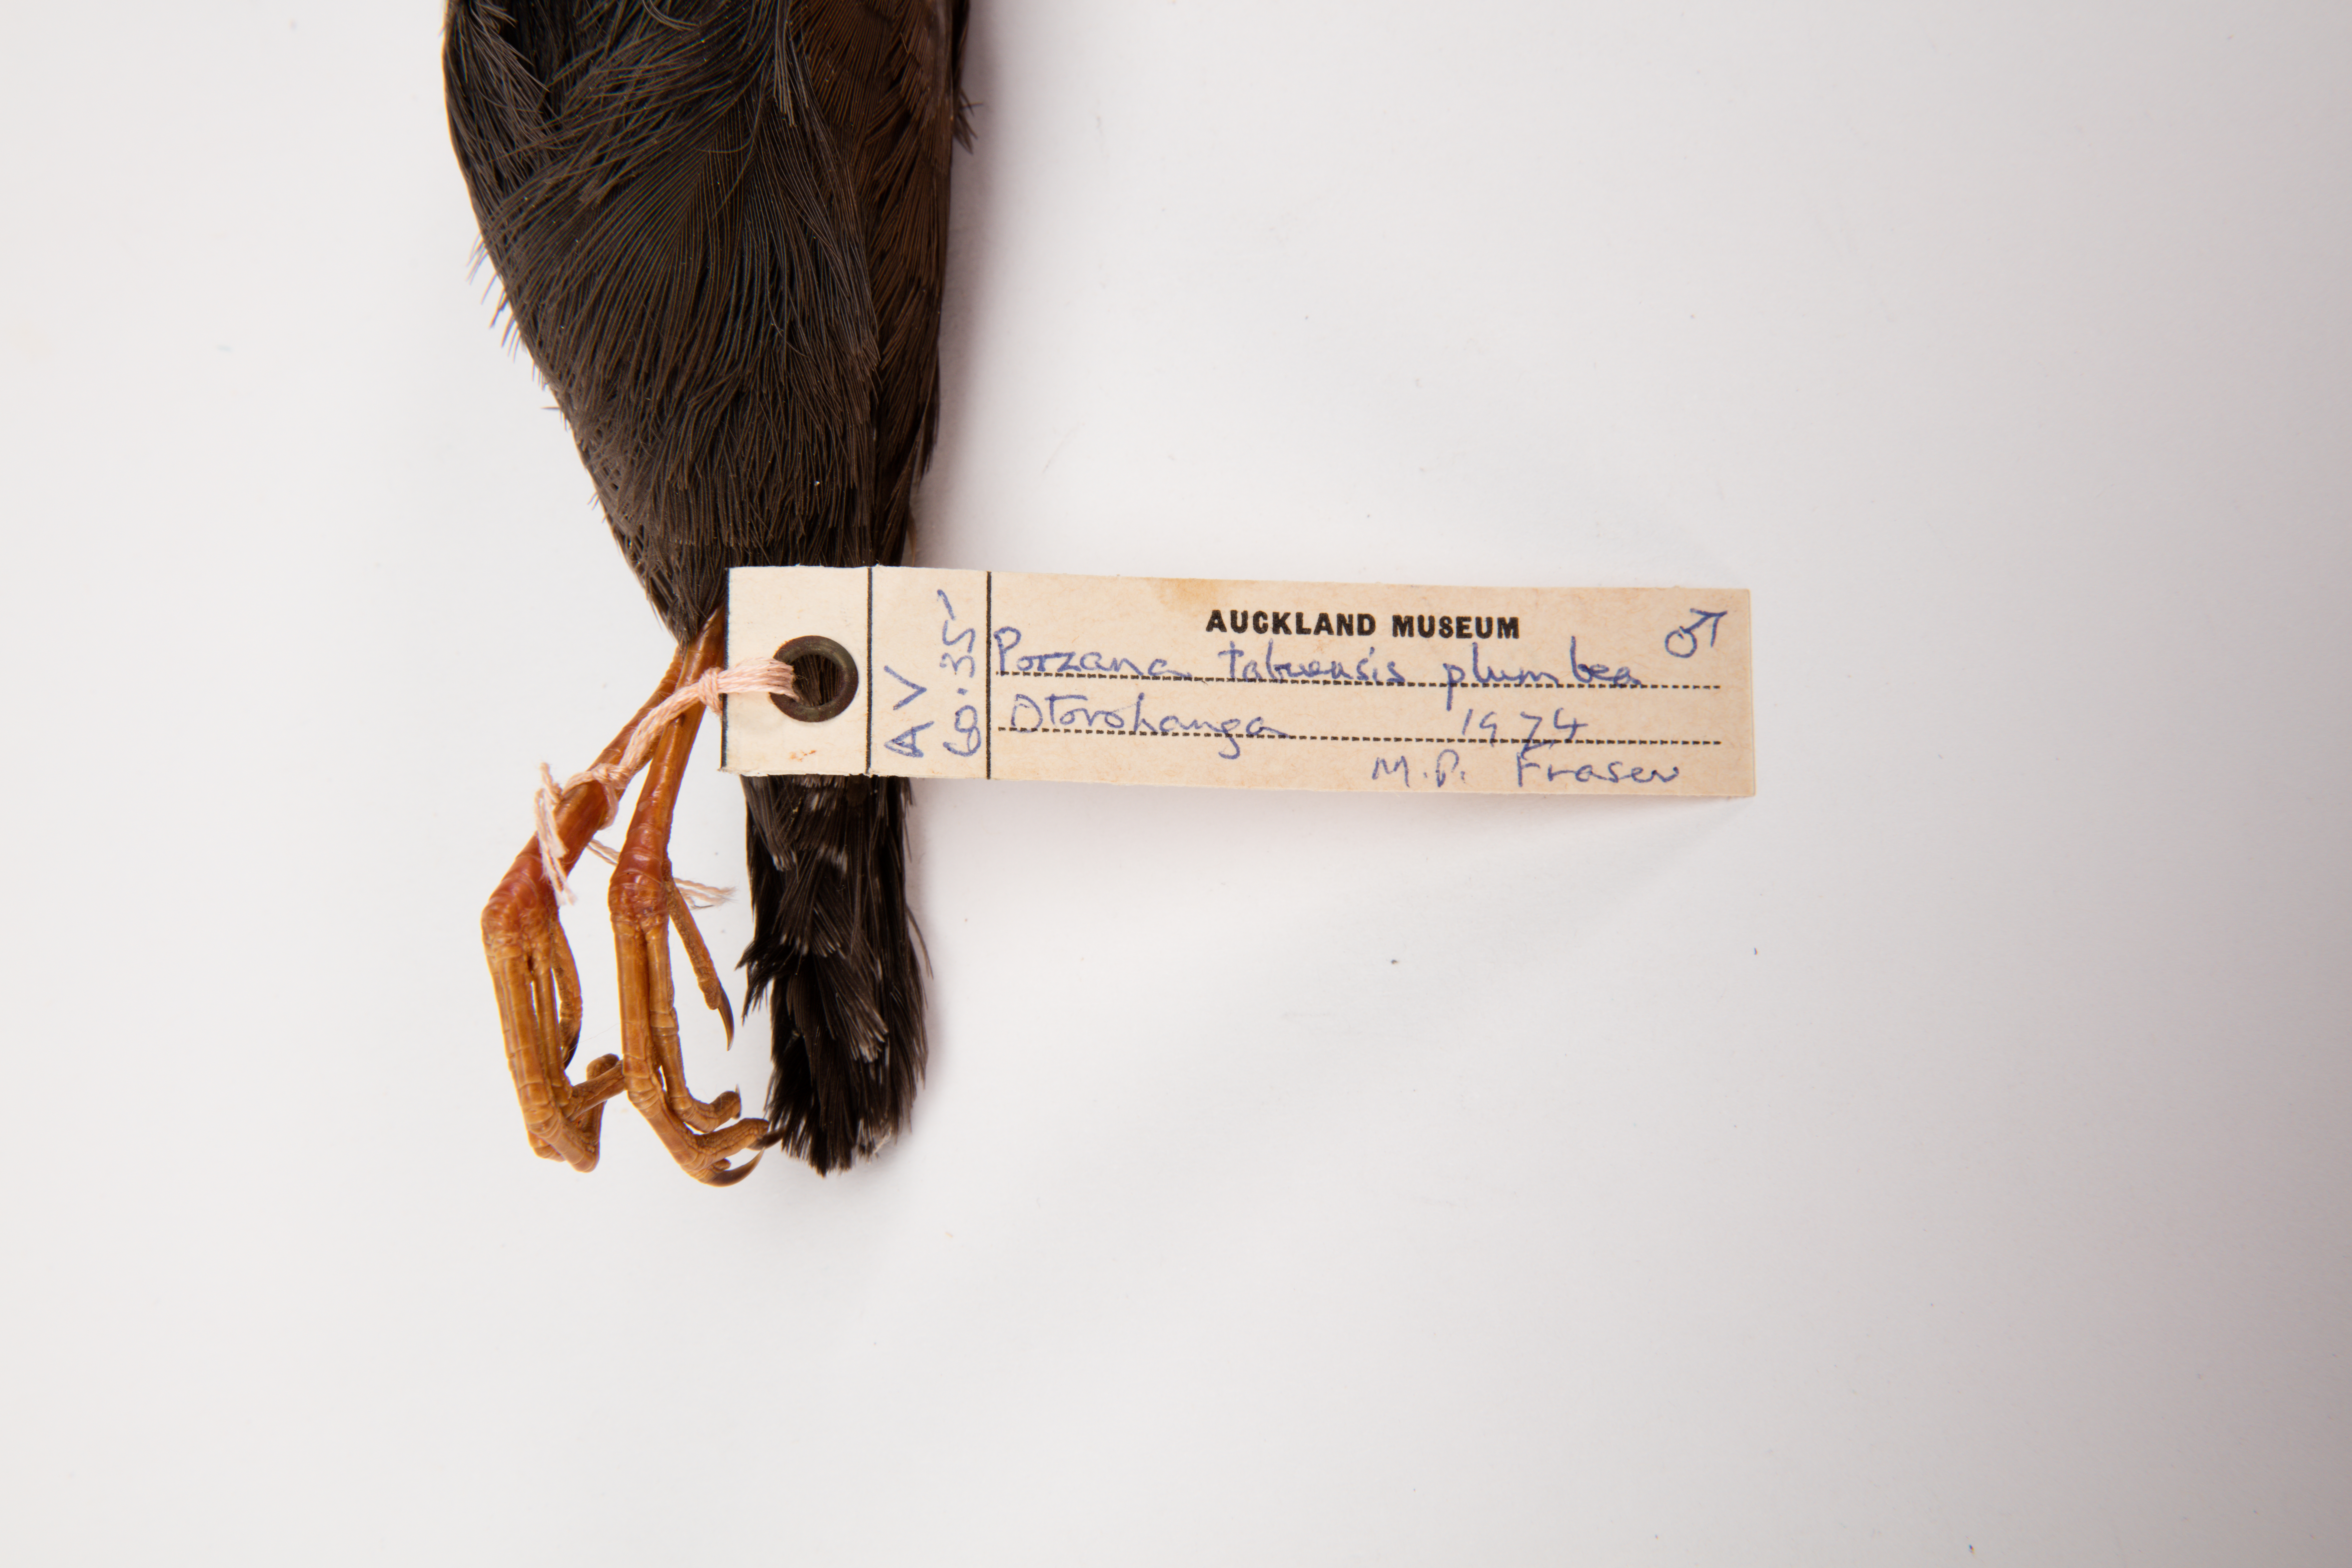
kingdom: Animalia
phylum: Chordata
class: Aves
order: Gruiformes
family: Rallidae
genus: Porzana
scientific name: Porzana tabuensis
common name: Spotless crake
